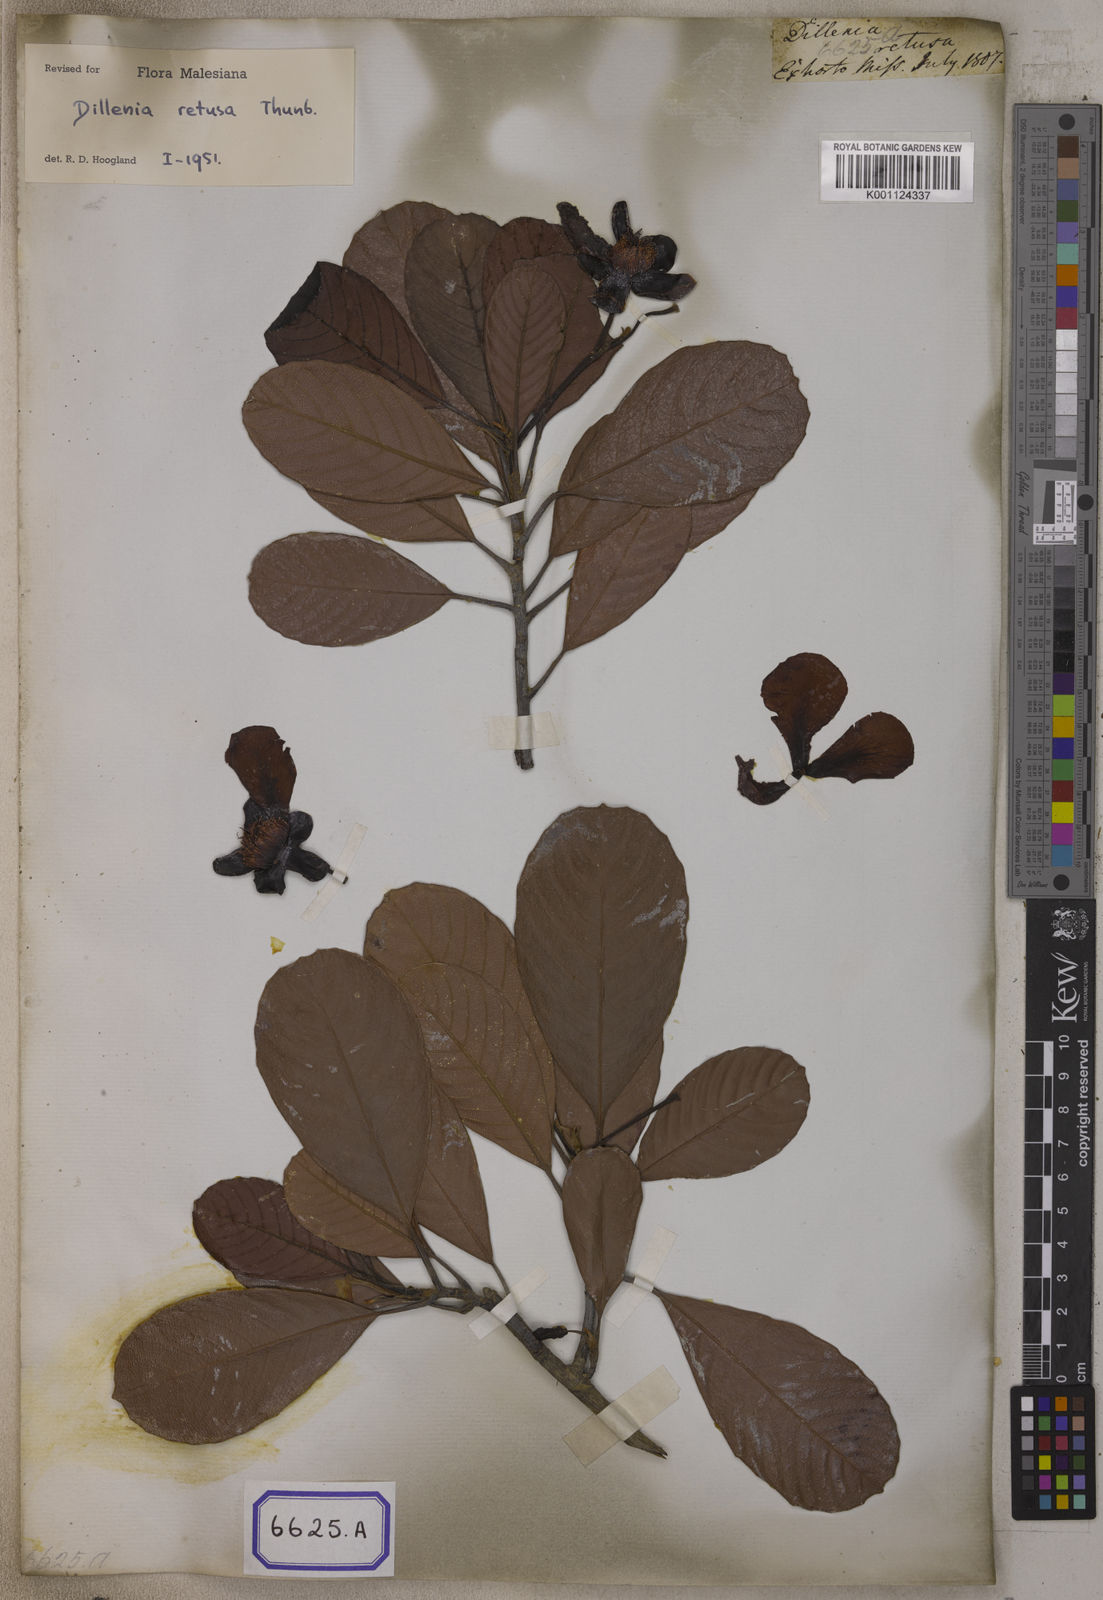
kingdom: Plantae
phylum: Tracheophyta
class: Magnoliopsida
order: Dilleniales
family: Dilleniaceae
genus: Dillenia
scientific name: Dillenia retusa
